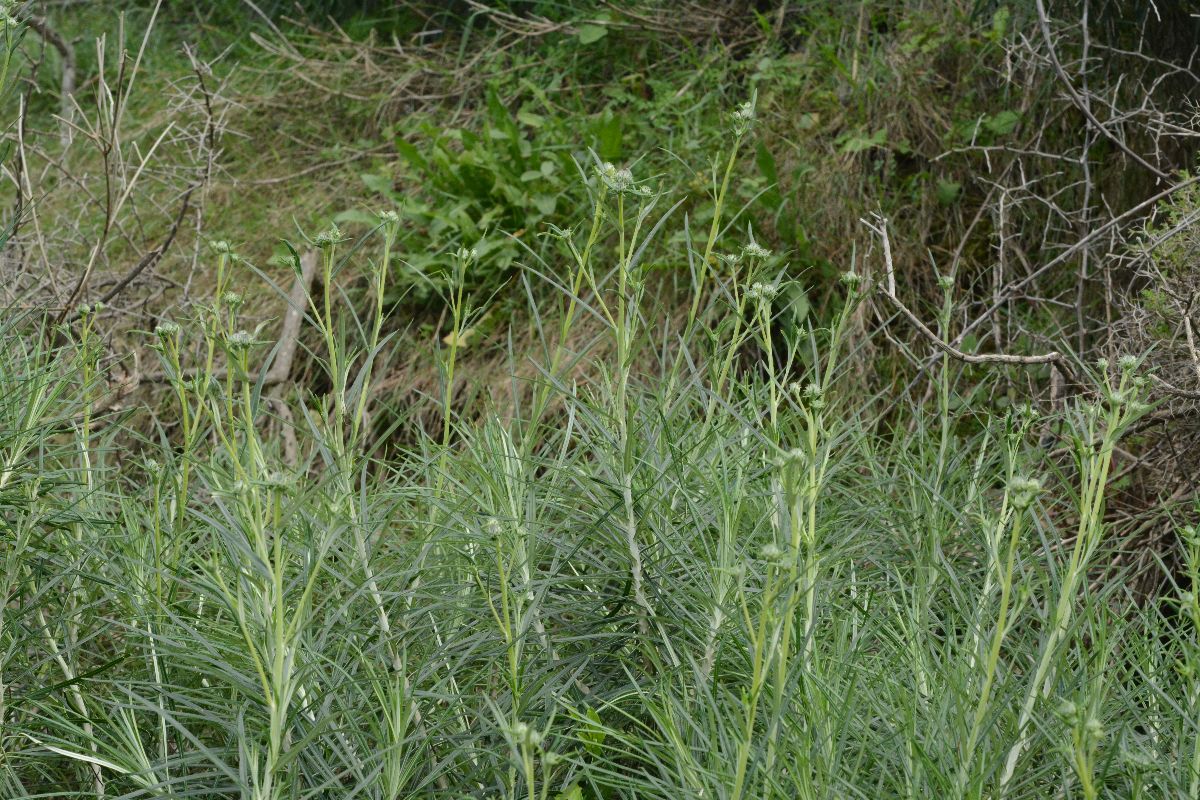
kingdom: Plantae
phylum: Tracheophyta
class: Magnoliopsida
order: Asterales
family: Asteraceae
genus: Ptilostemon
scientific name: Ptilostemon chamaepeuce
